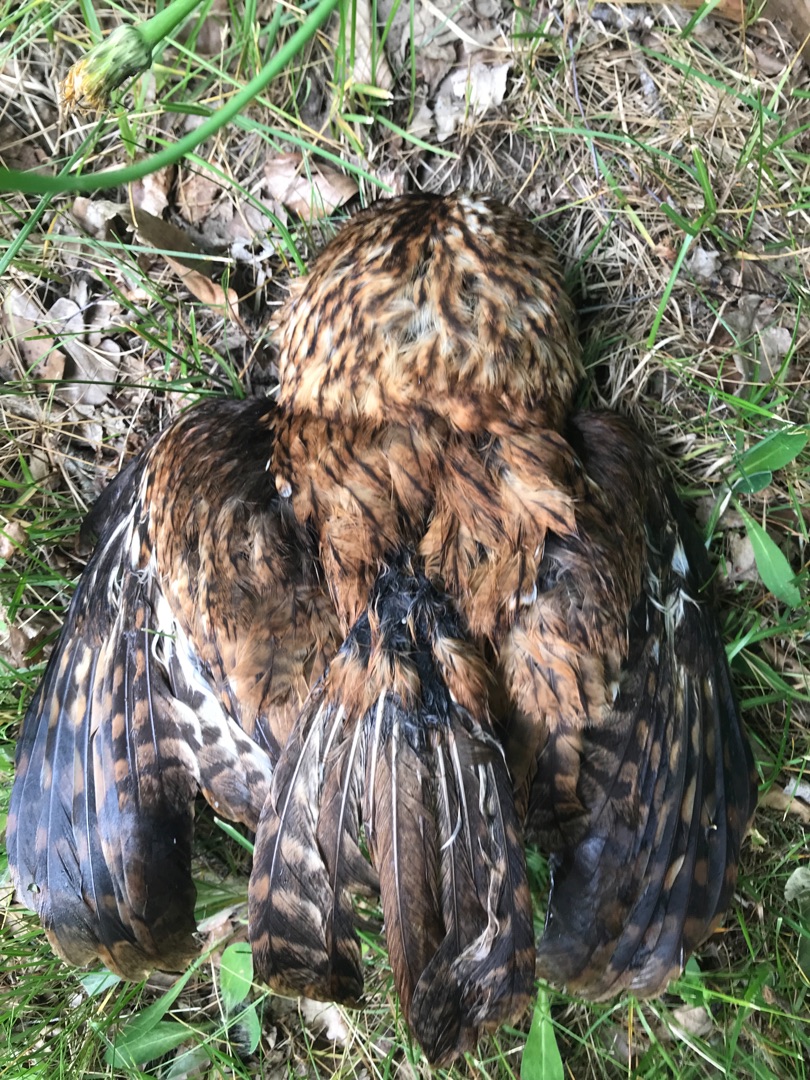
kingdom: Animalia
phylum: Chordata
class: Aves
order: Strigiformes
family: Strigidae
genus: Strix
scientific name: Strix aluco
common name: Natugle
